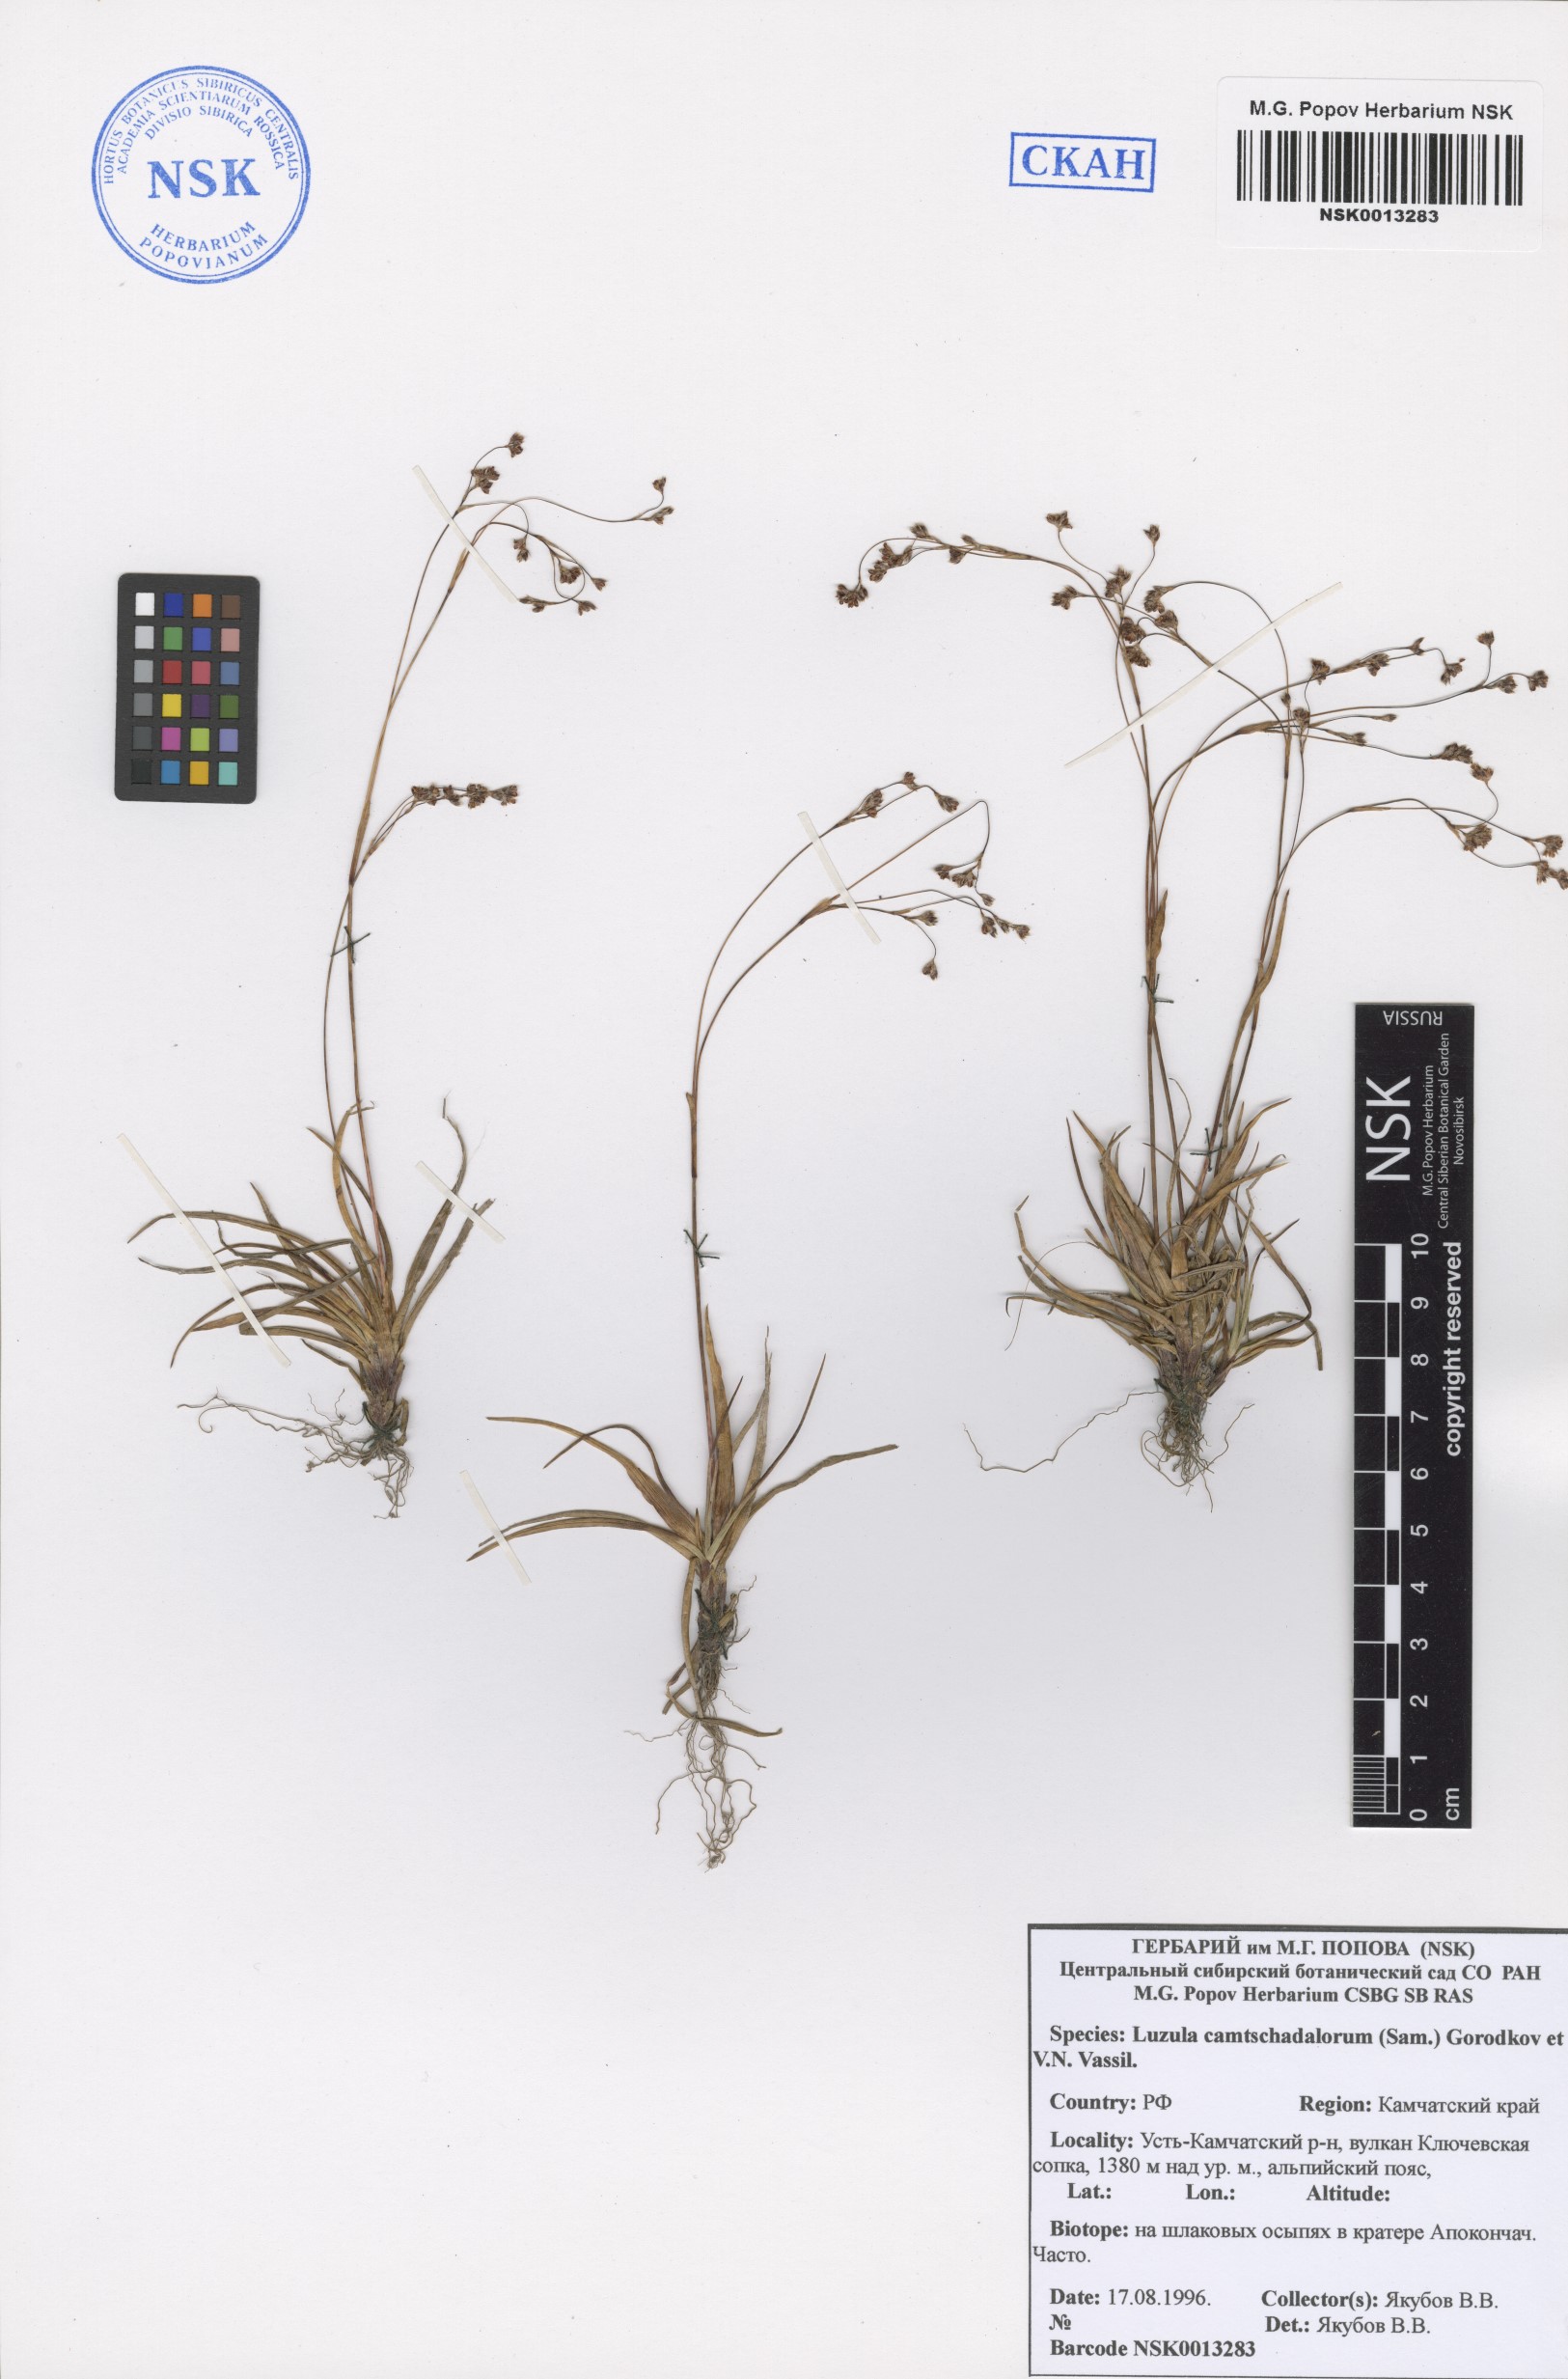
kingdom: Plantae
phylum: Tracheophyta
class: Liliopsida
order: Poales
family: Juncaceae
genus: Luzula
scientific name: Luzula arcuata
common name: Curved wood-rush
